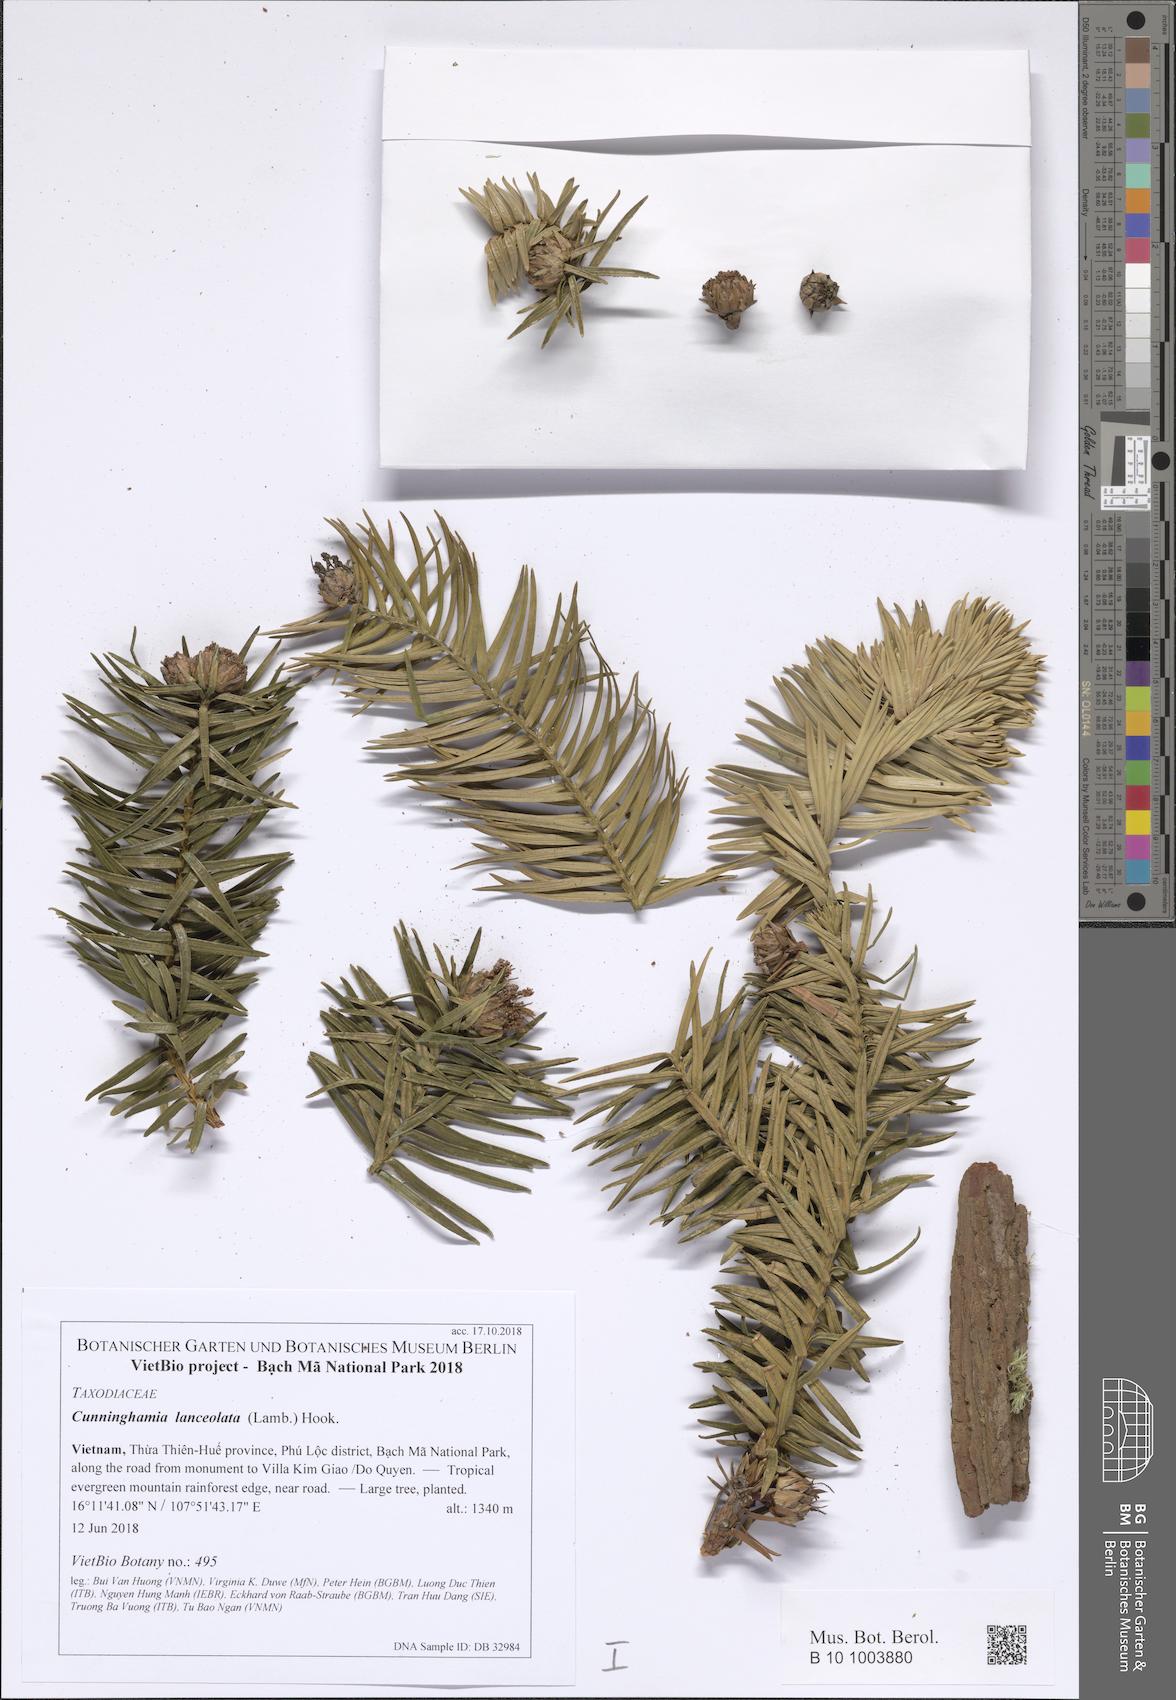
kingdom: Plantae
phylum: Tracheophyta
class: Pinopsida
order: Pinales
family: Cupressaceae
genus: Cunninghamia
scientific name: Cunninghamia lanceolata
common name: Chinese fir
